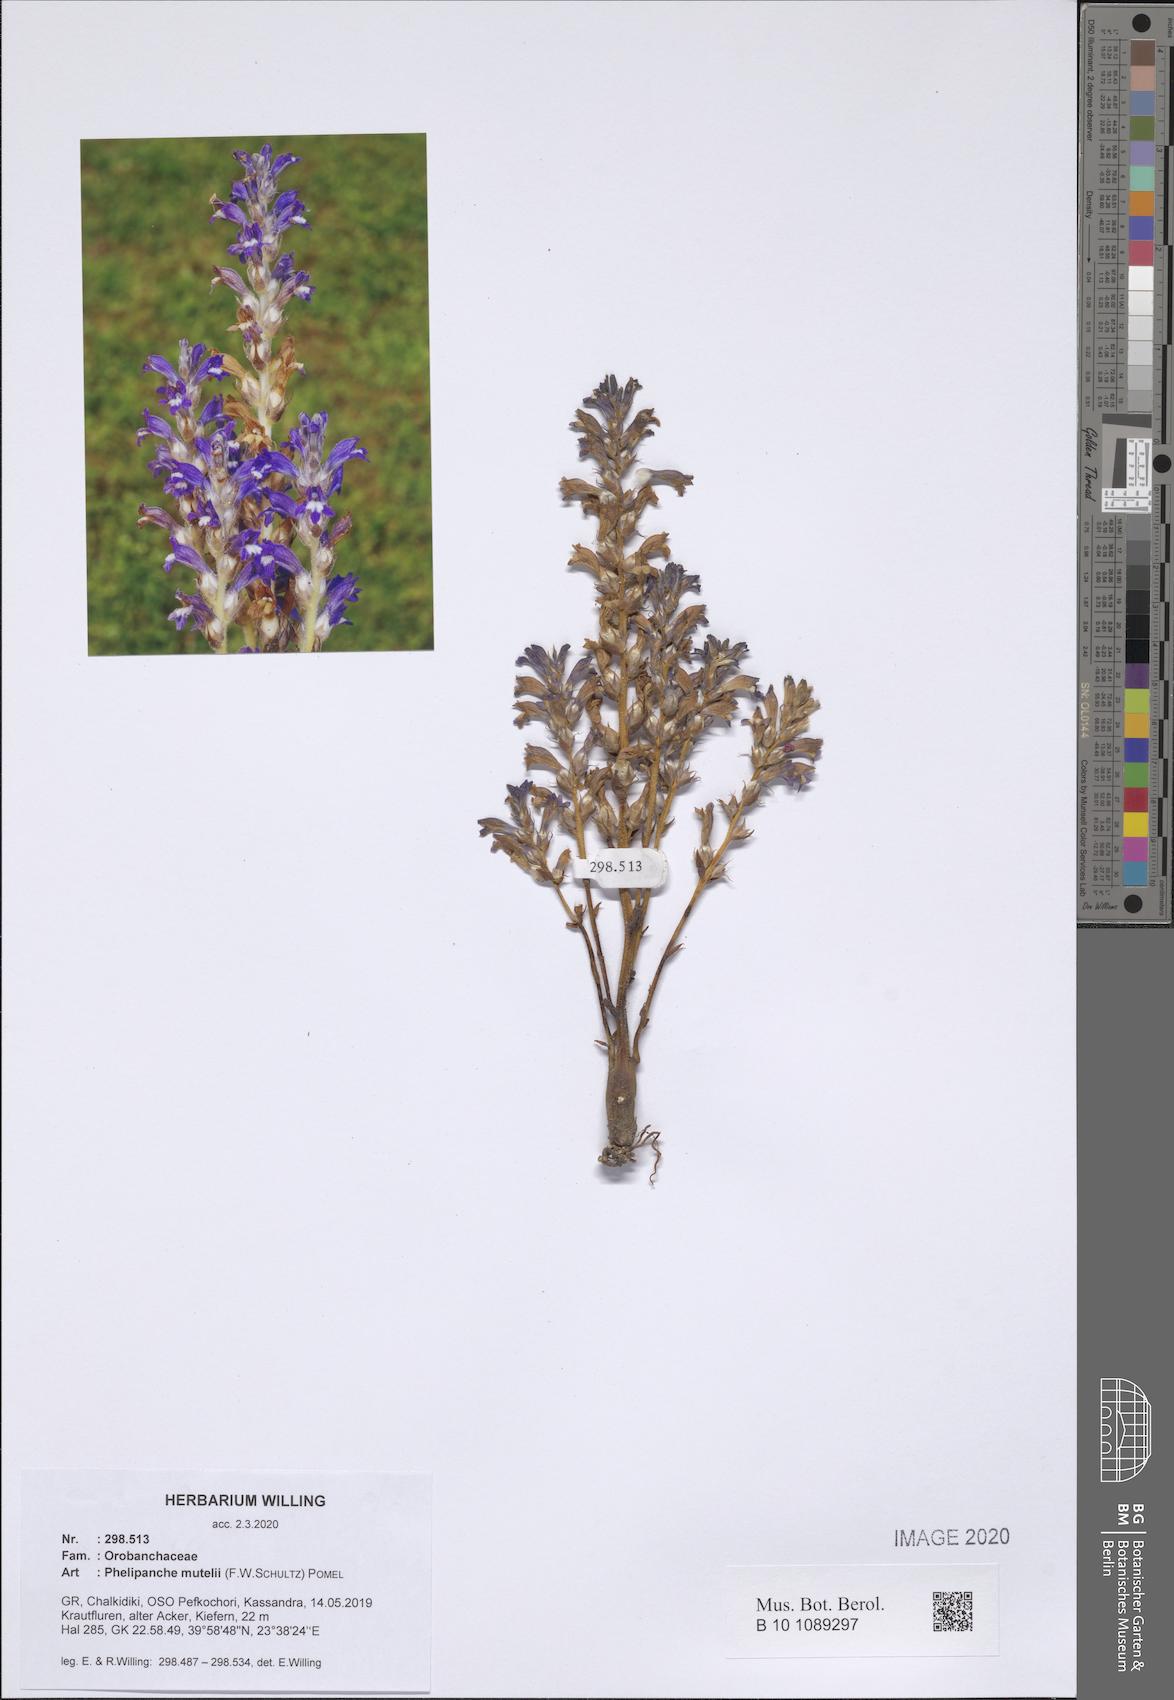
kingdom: Plantae
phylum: Tracheophyta
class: Magnoliopsida
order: Lamiales
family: Orobanchaceae
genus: Phelipanche
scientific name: Phelipanche mutelii
